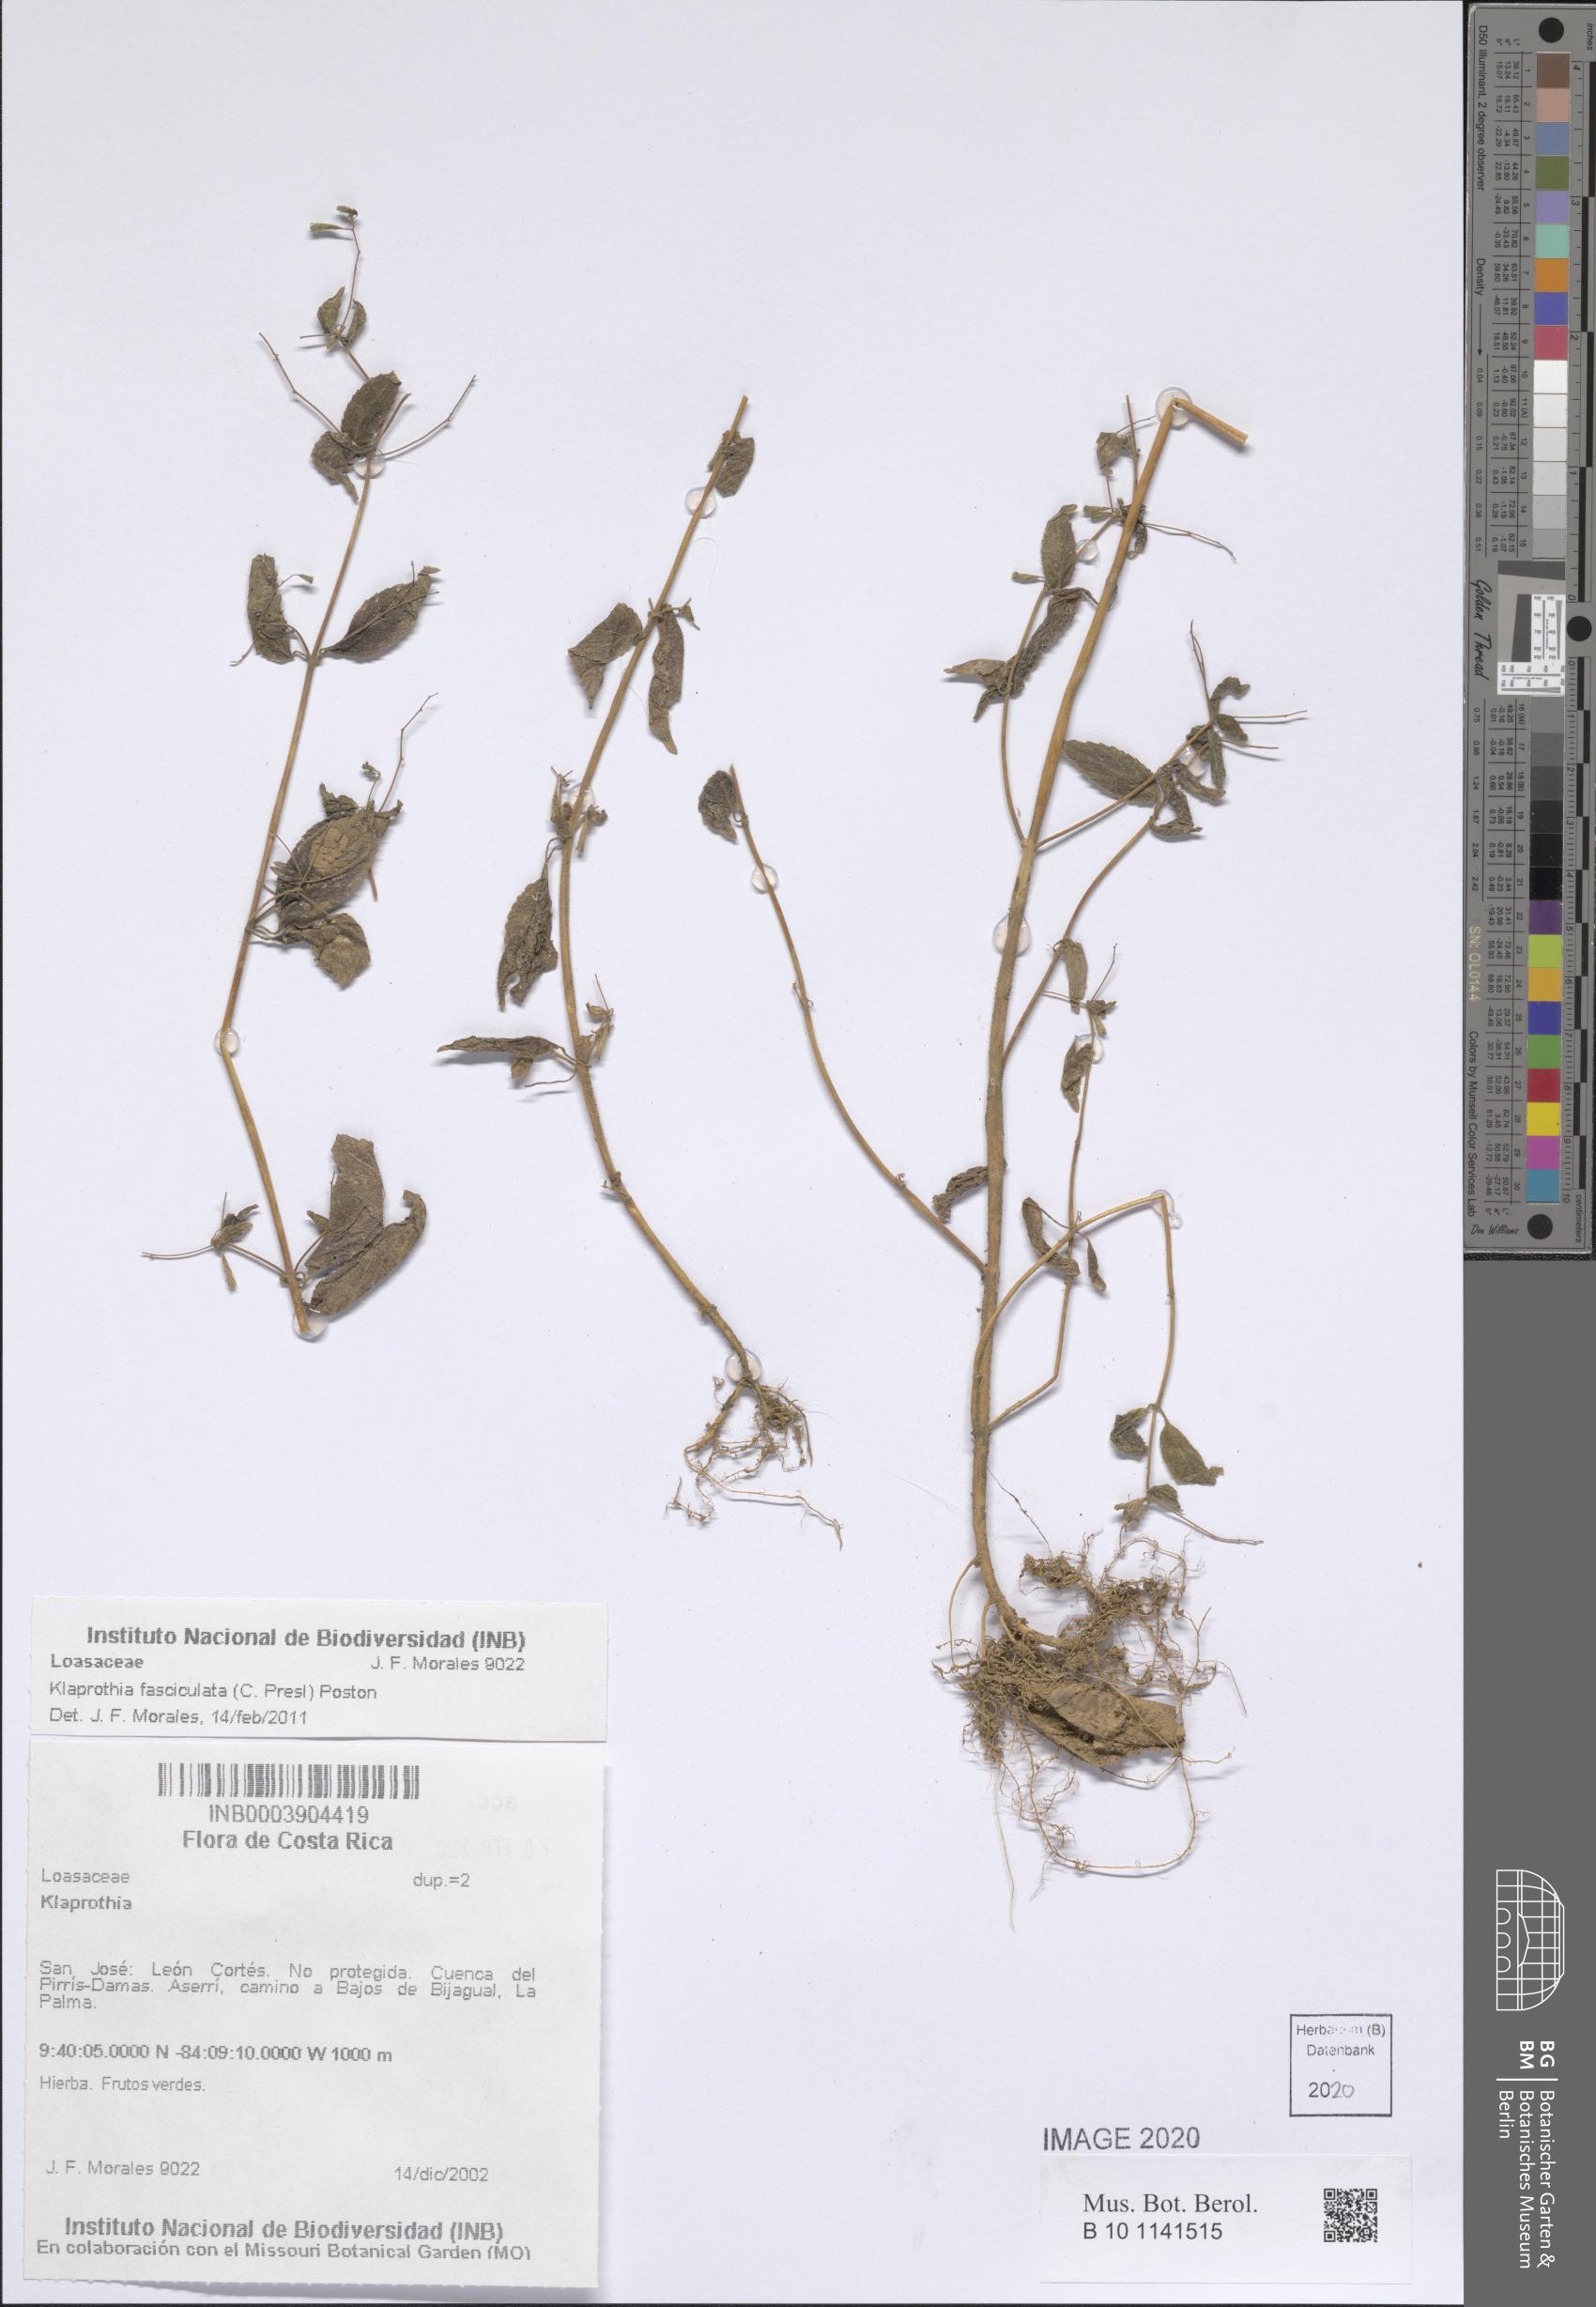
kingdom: Plantae
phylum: Tracheophyta
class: Magnoliopsida
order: Cornales
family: Loasaceae
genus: Klaprothia
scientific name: Klaprothia fasciculata
